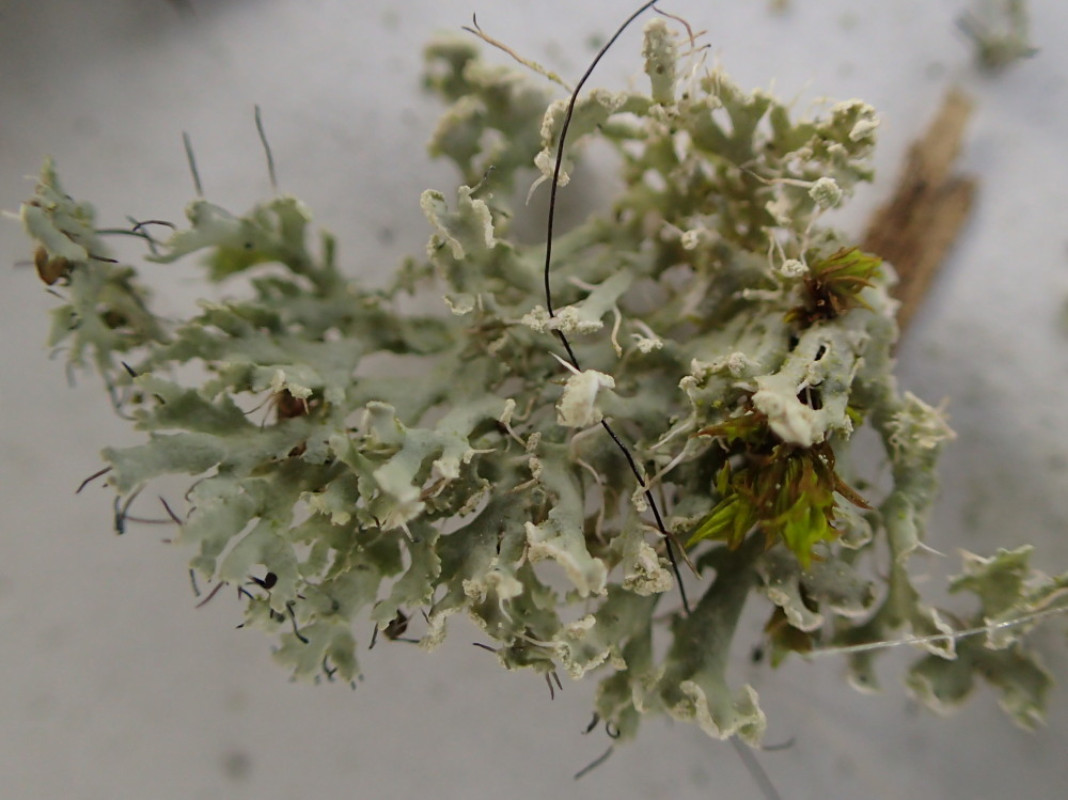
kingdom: Fungi
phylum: Ascomycota
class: Lecanoromycetes
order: Caliciales
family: Physciaceae
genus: Physcia
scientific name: Physcia tenella
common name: spæd rosetlav
